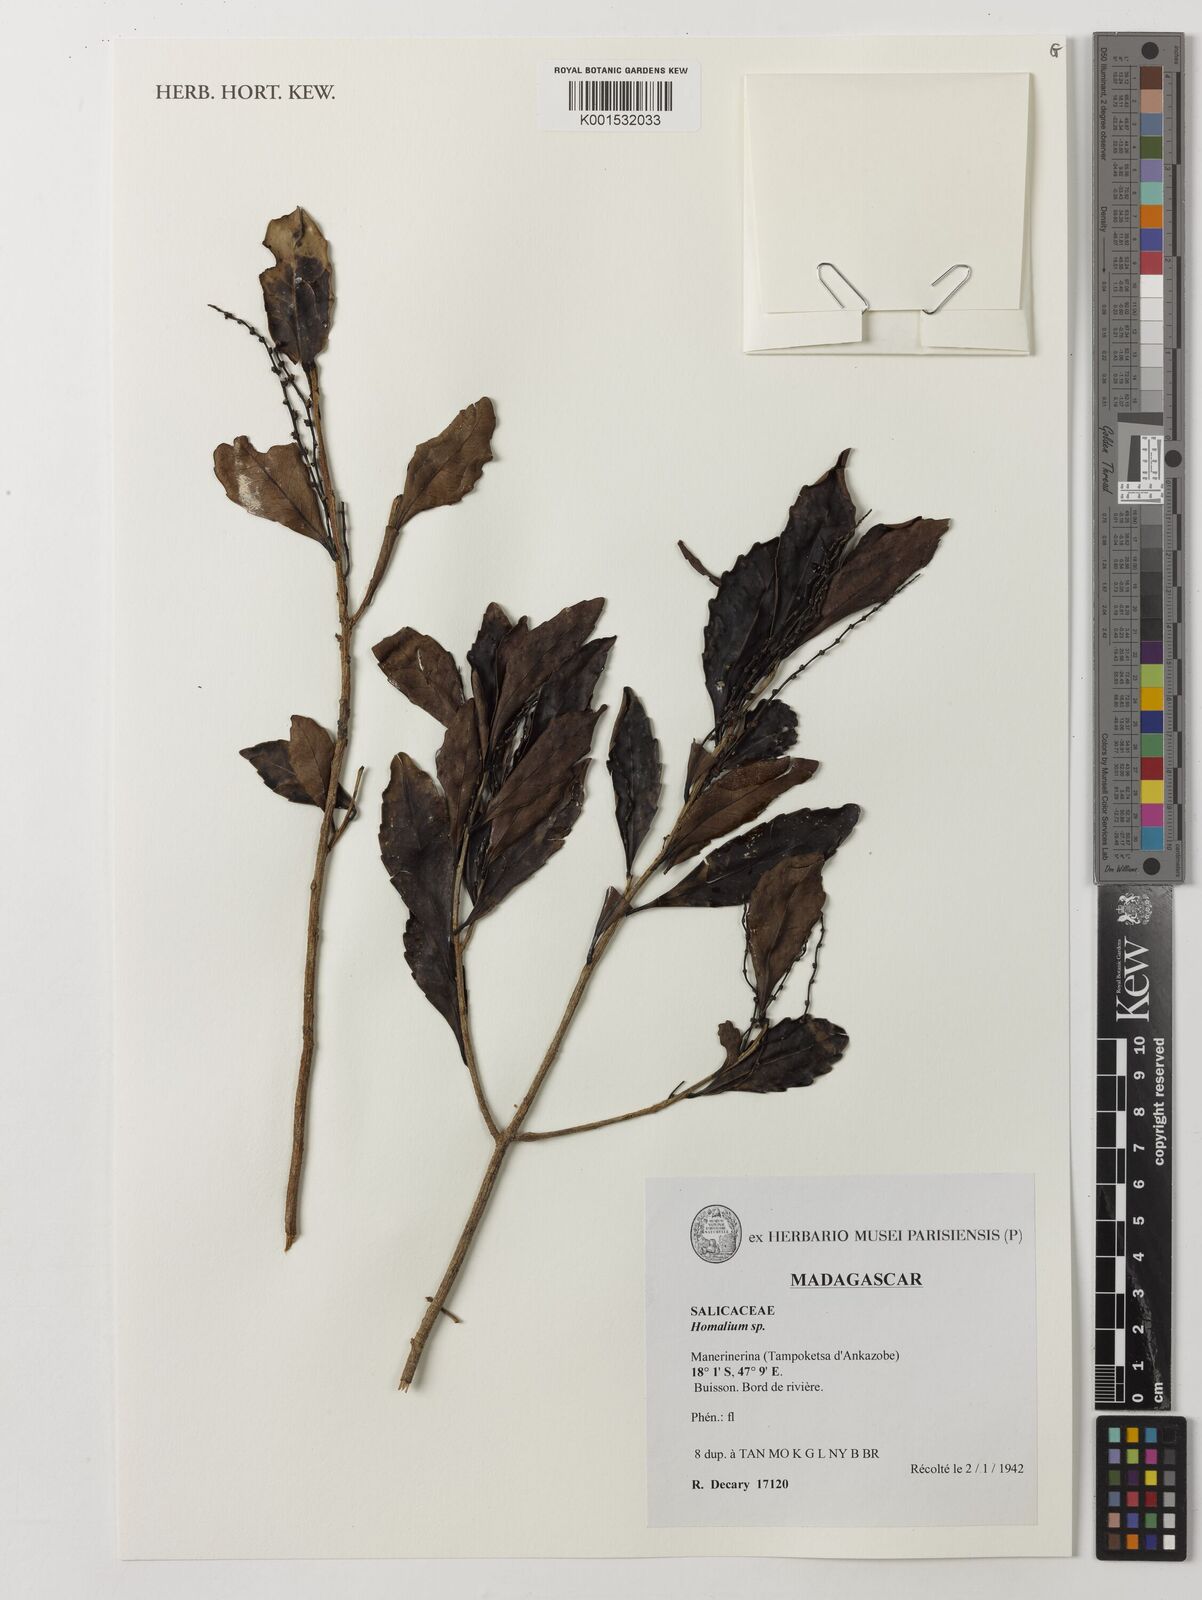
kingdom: Plantae
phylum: Tracheophyta
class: Magnoliopsida
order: Malpighiales
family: Salicaceae
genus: Homalium
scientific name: Homalium
